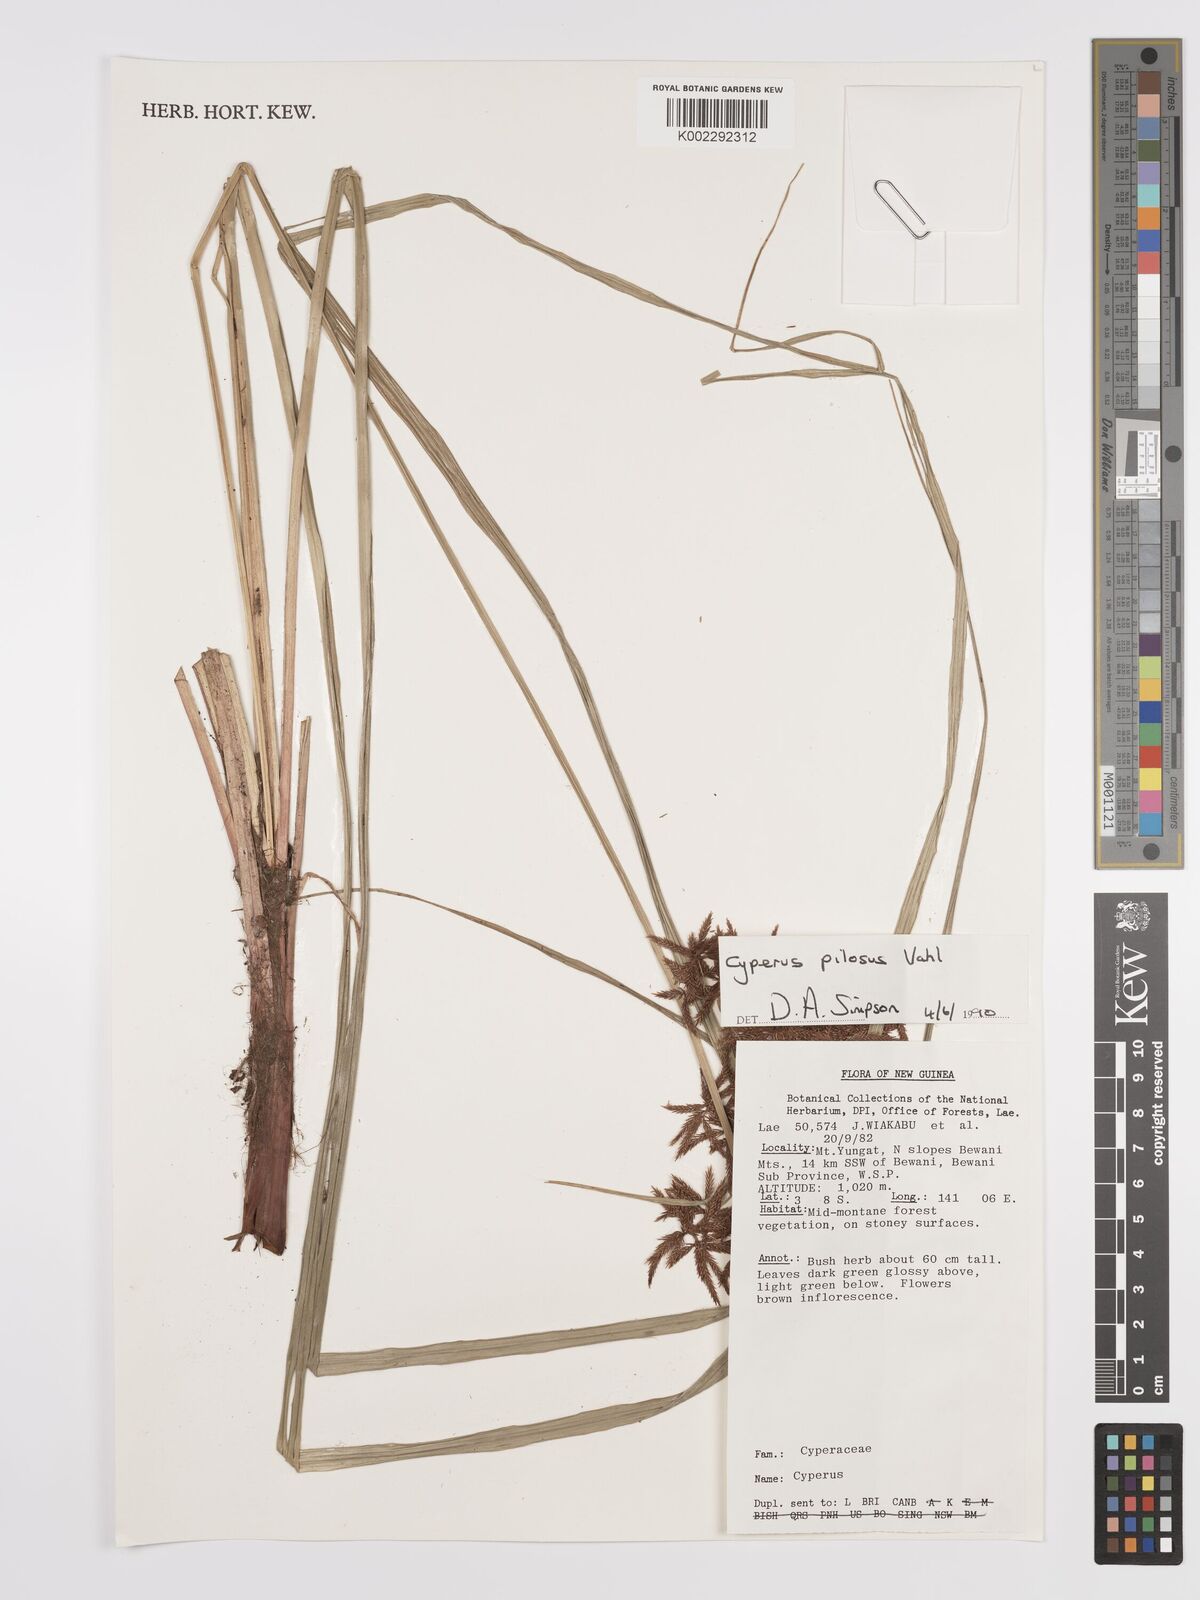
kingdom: Plantae
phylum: Tracheophyta
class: Liliopsida
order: Poales
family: Cyperaceae
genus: Cyperus
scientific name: Cyperus pilosus
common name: Fuzzy flatsedge
